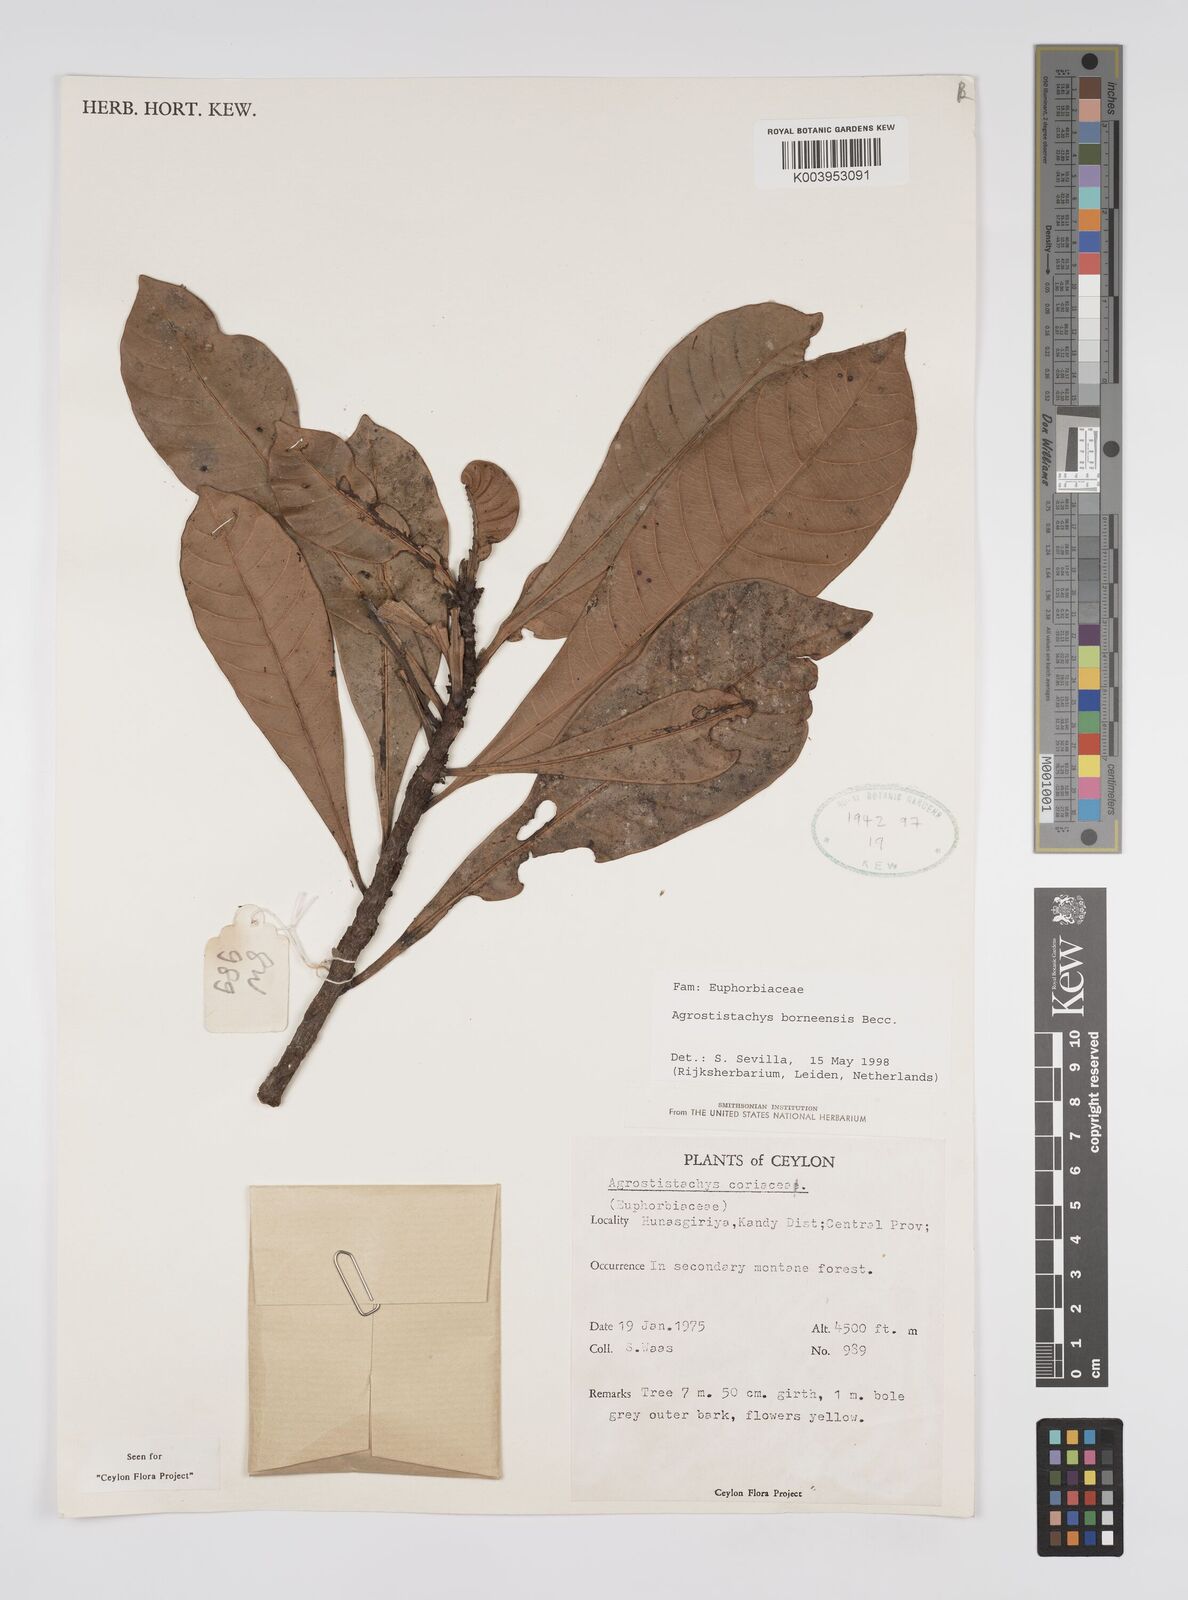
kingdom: Plantae
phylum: Tracheophyta
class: Magnoliopsida
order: Malpighiales
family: Euphorbiaceae
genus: Agrostistachys
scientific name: Agrostistachys borneensis
